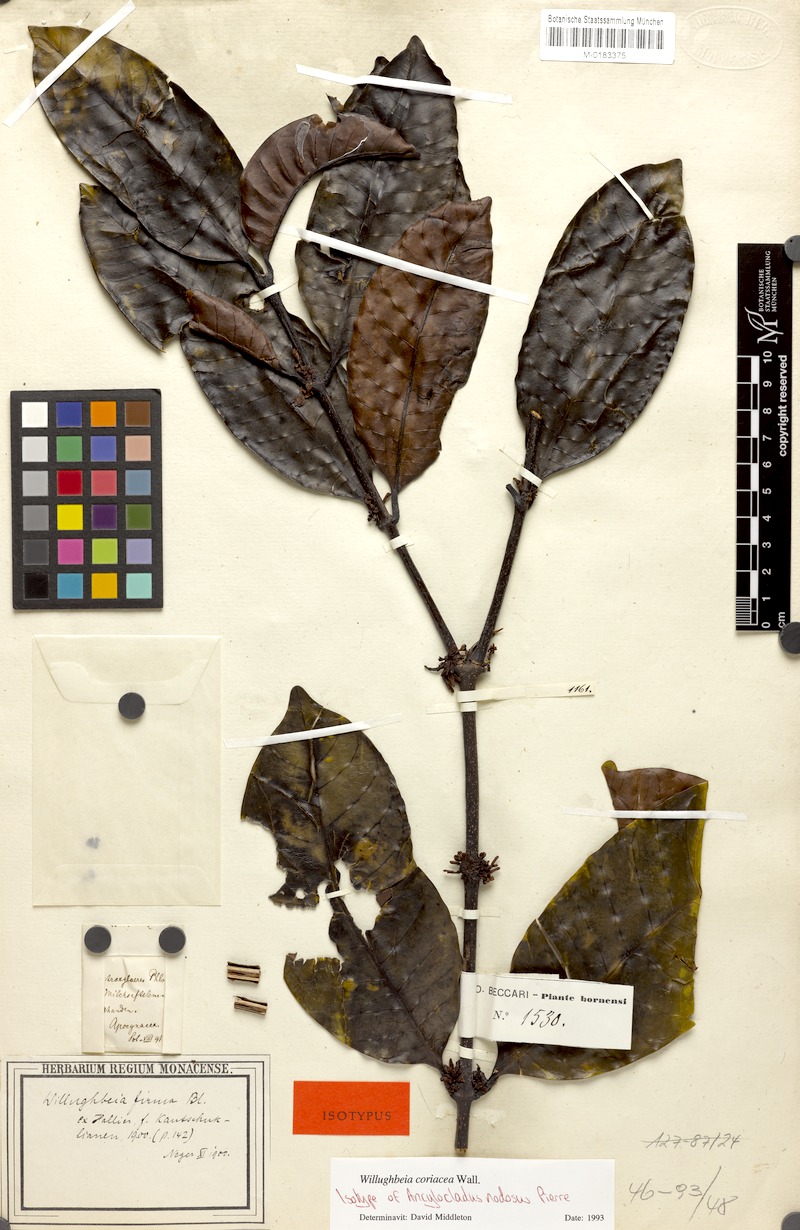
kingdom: Plantae
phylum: Tracheophyta
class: Magnoliopsida
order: Gentianales
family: Apocynaceae
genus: Willughbeia
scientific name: Willughbeia coriacea
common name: Borneo-rubber
